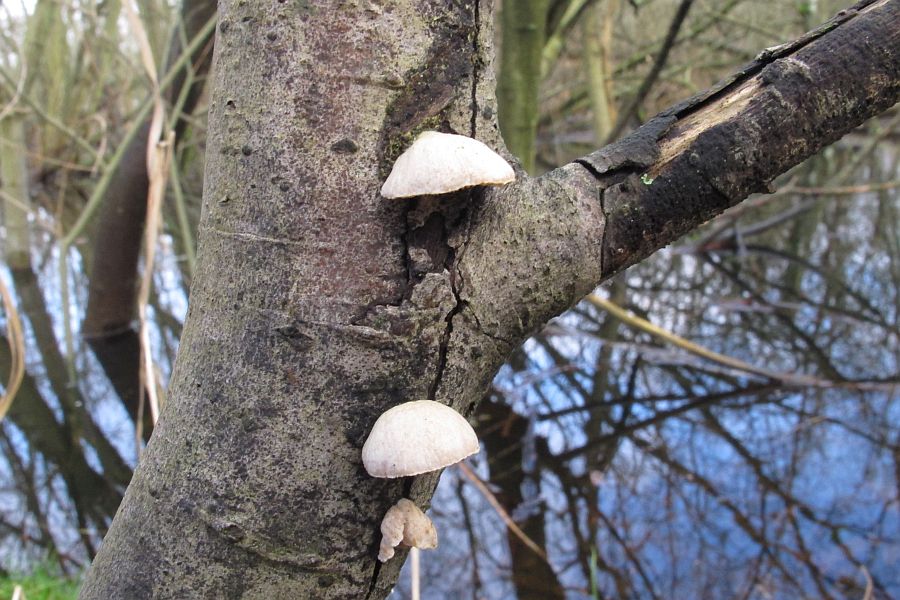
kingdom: Fungi
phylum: Basidiomycota
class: Agaricomycetes
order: Agaricales
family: Crepidotaceae
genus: Crepidotus
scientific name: Crepidotus mollis
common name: blød muslingesvamp
